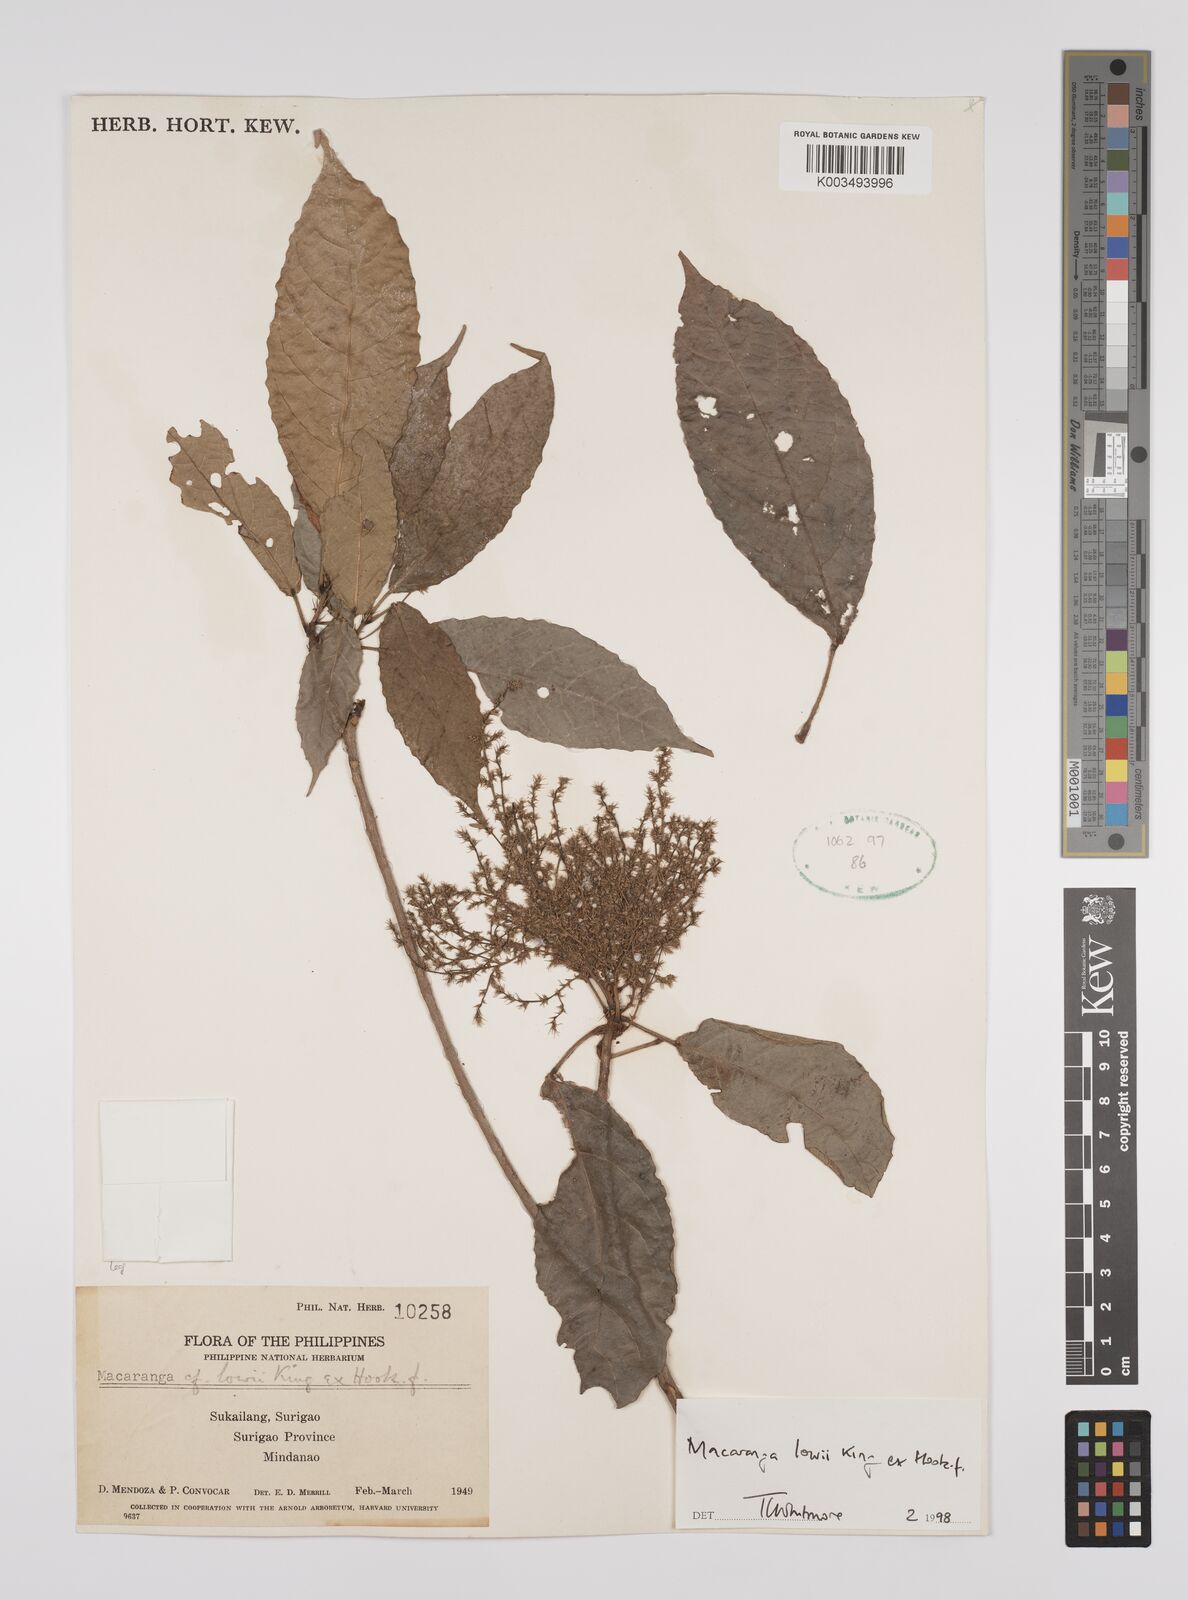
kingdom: Plantae
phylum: Tracheophyta
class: Magnoliopsida
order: Malpighiales
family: Euphorbiaceae
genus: Macaranga
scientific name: Macaranga lowii
